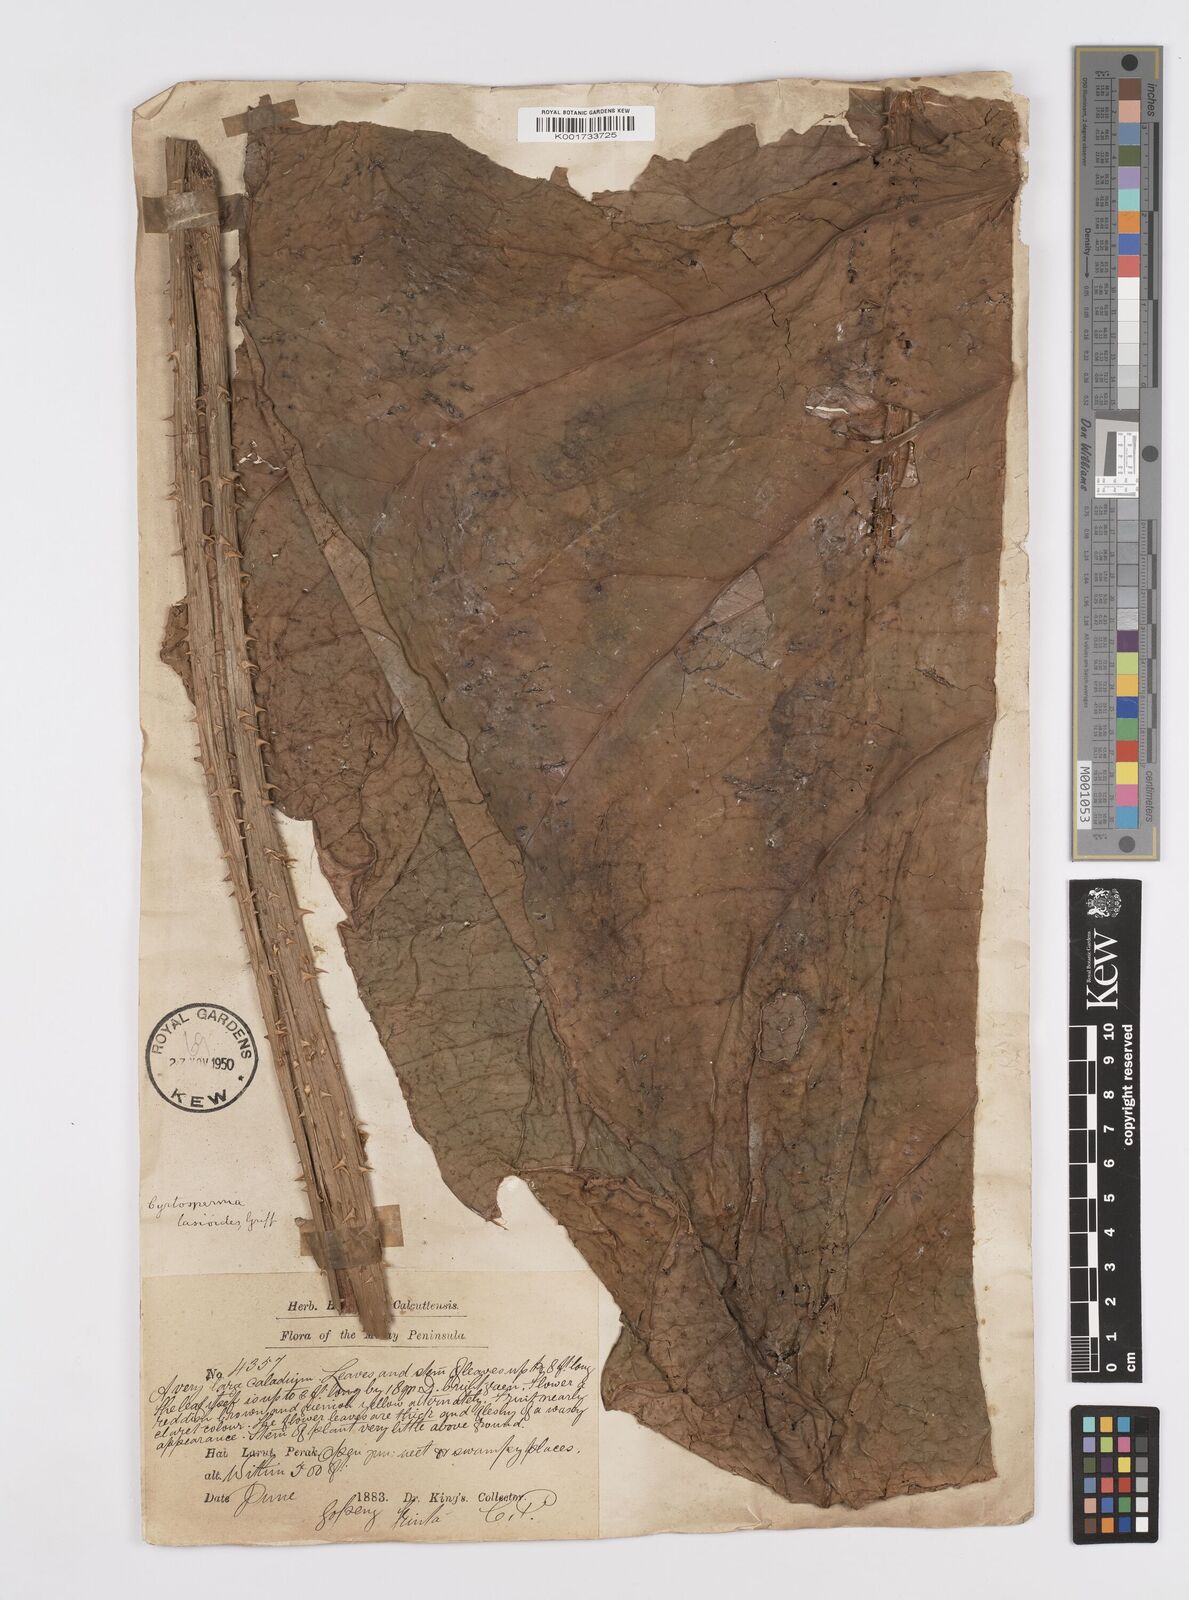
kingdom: Plantae
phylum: Tracheophyta
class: Liliopsida
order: Alismatales
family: Araceae
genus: Cyrtosperma
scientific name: Cyrtosperma merkusii
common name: Giant swamp-taro
